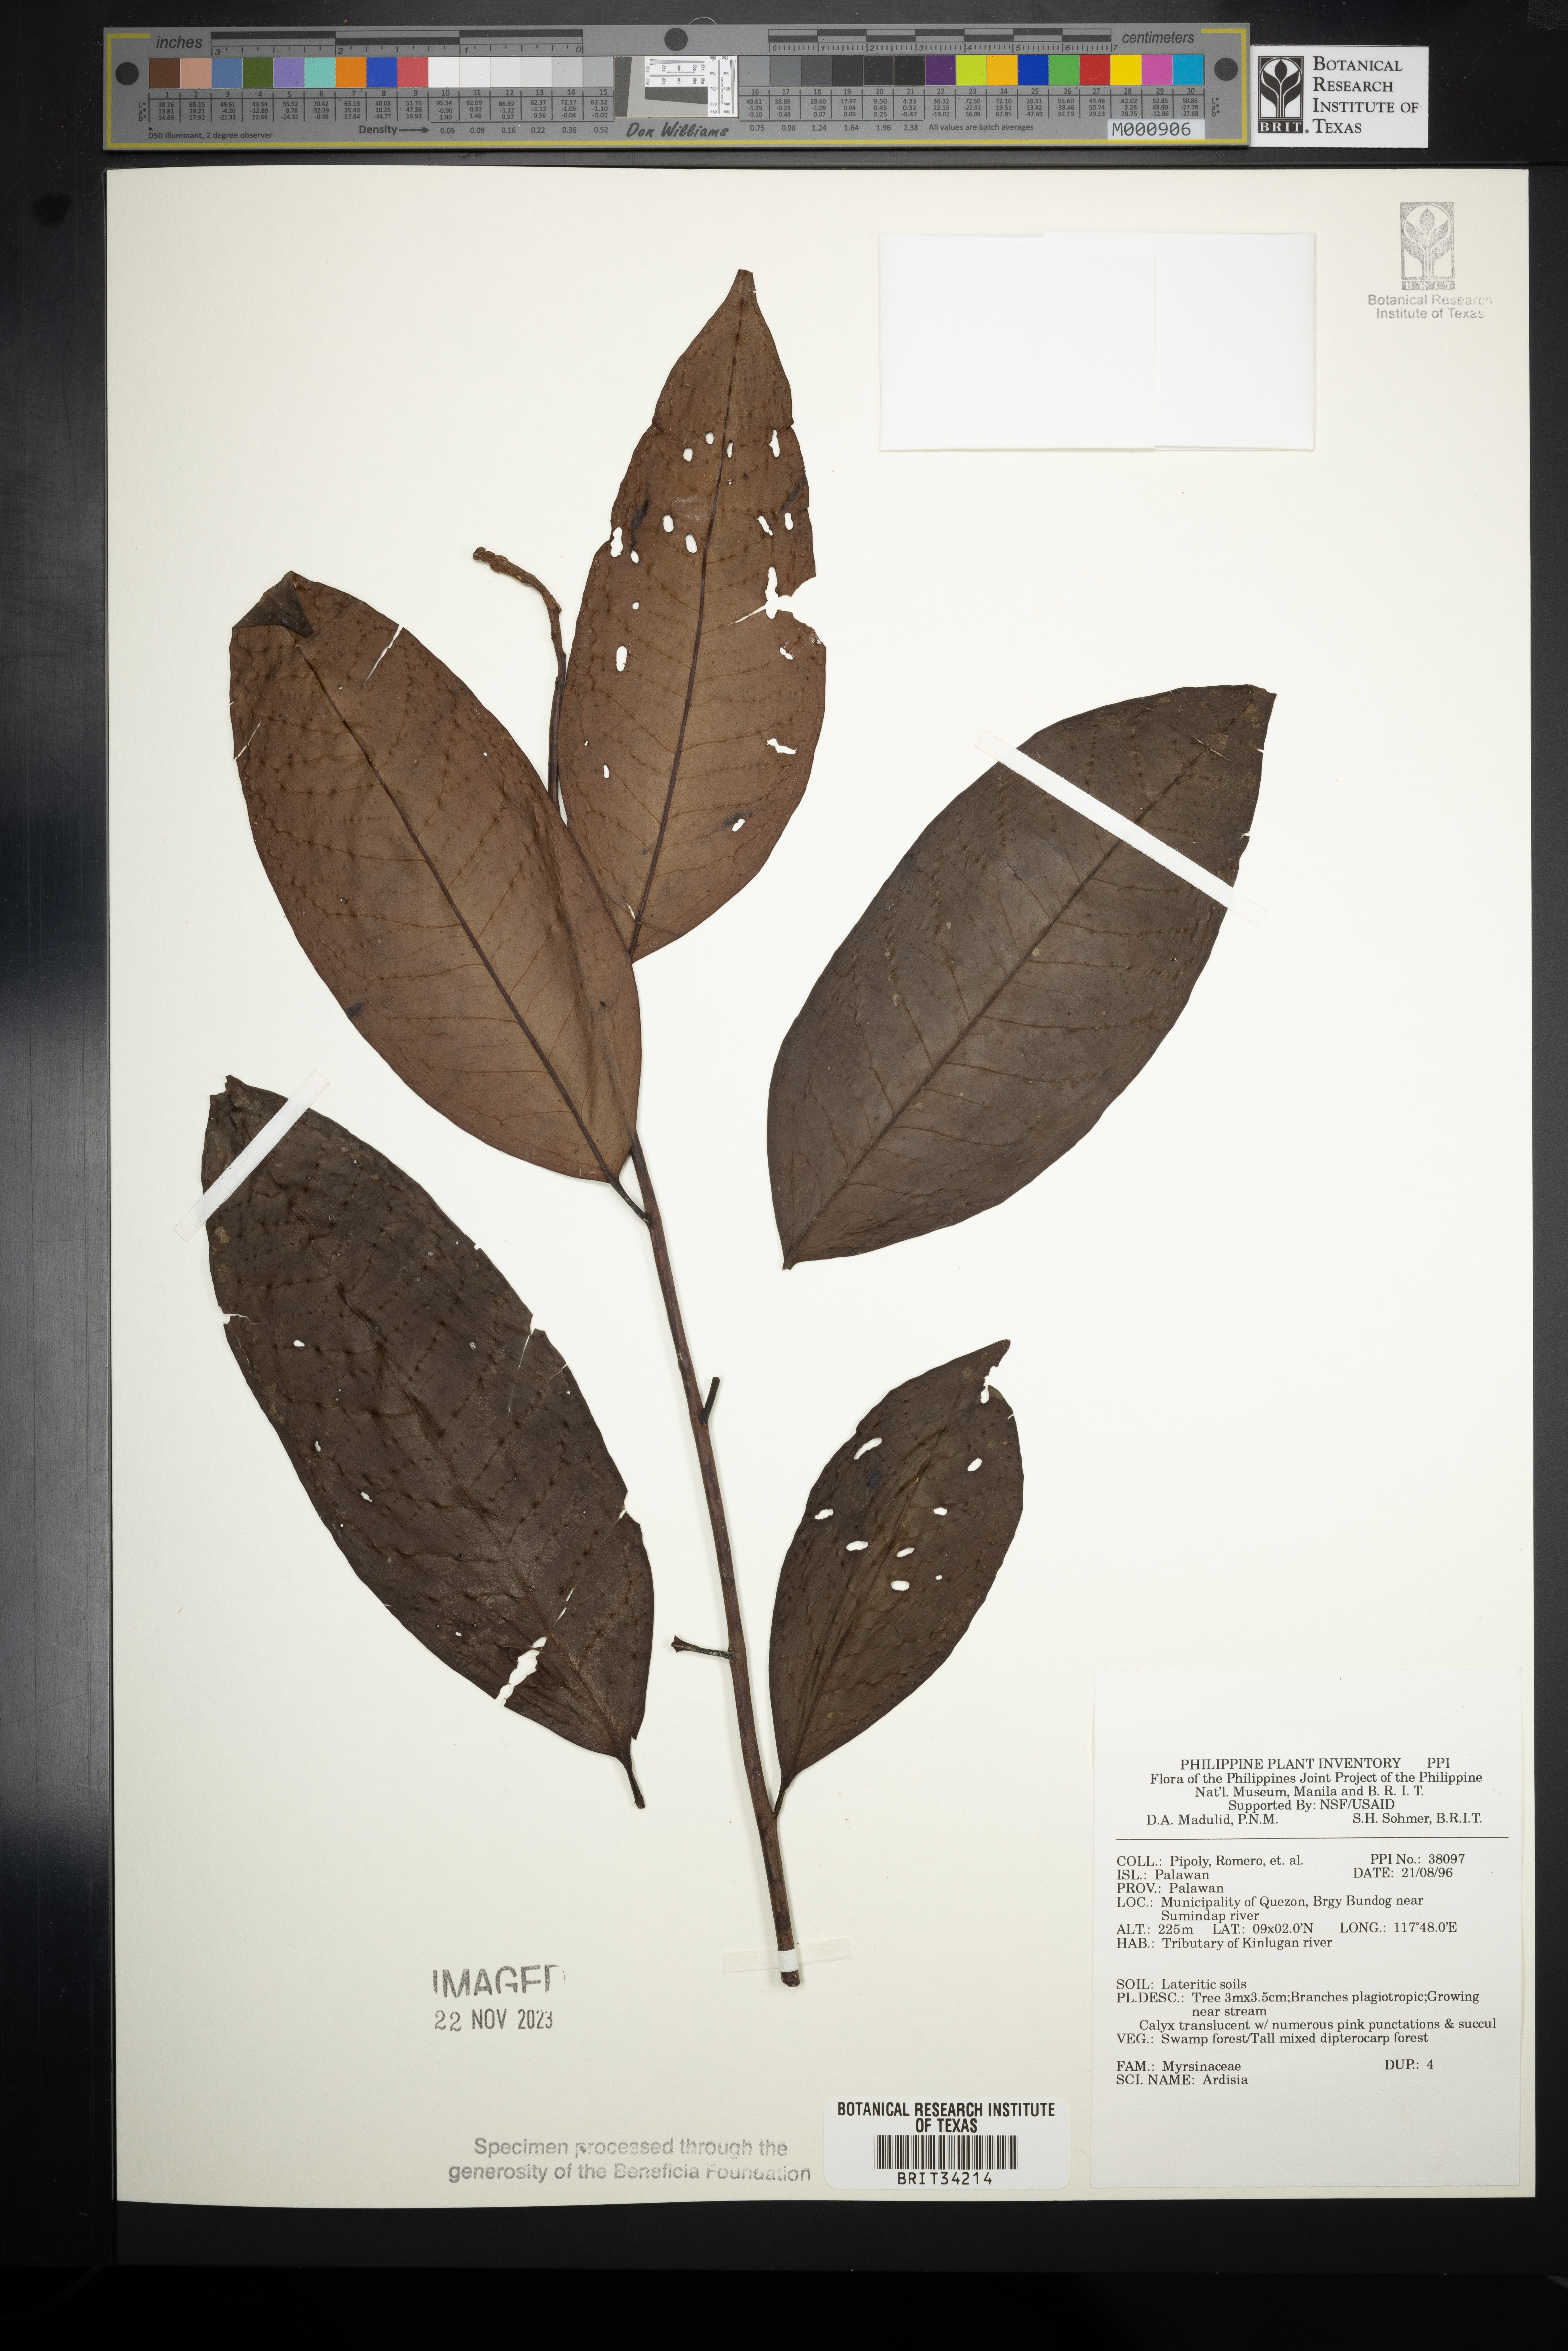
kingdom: Plantae
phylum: Tracheophyta
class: Magnoliopsida
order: Ericales
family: Primulaceae
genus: Ardisia
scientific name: Ardisia
